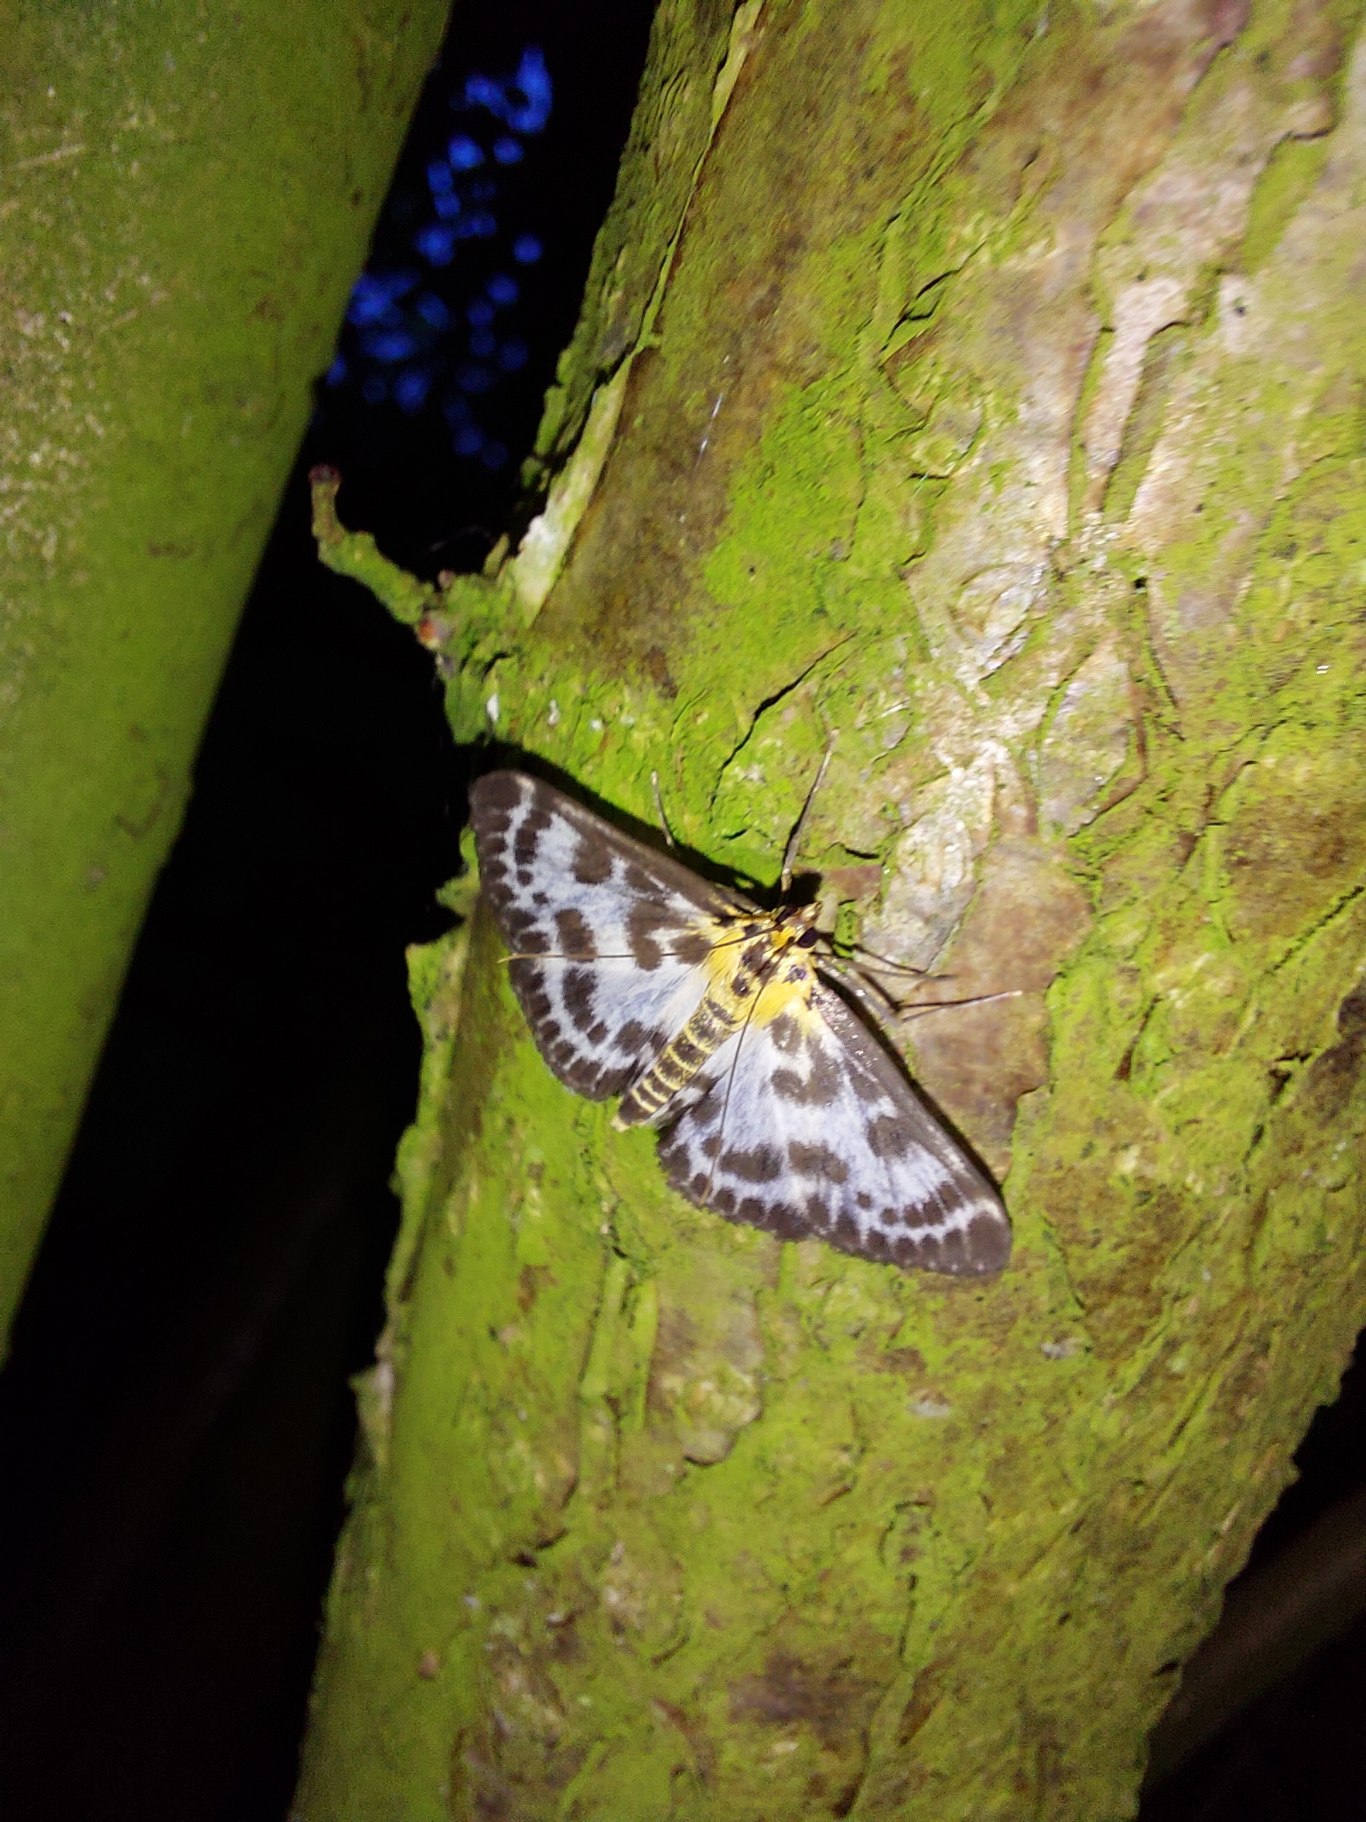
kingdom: Animalia
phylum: Arthropoda
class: Insecta
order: Lepidoptera
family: Crambidae
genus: Anania
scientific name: Anania hortulata
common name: Nældehalvmøl
